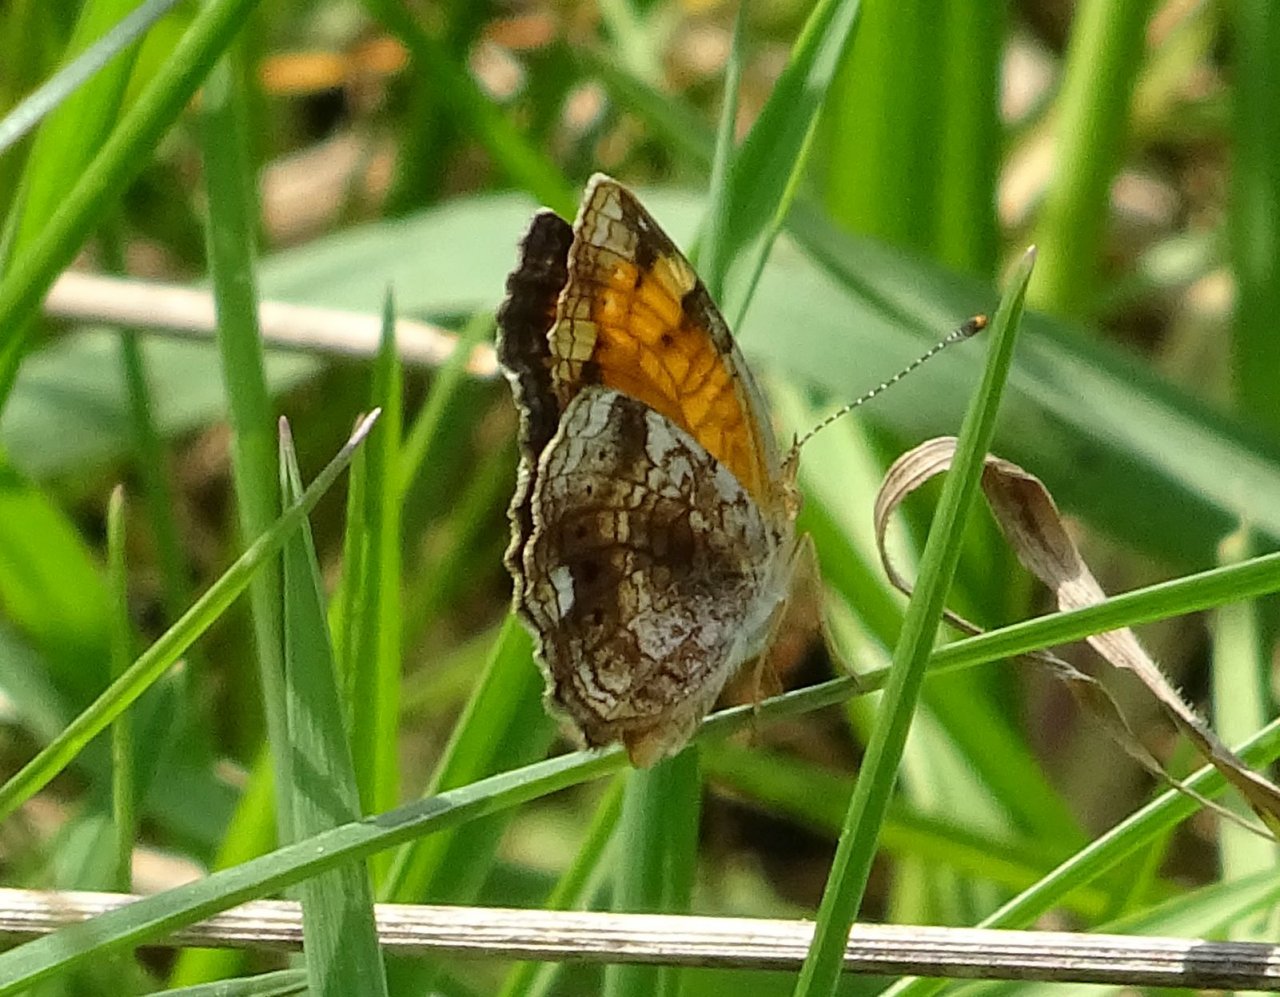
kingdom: Animalia
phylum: Arthropoda
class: Insecta
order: Lepidoptera
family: Nymphalidae
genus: Phyciodes
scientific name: Phyciodes tharos
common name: Northern Crescent
